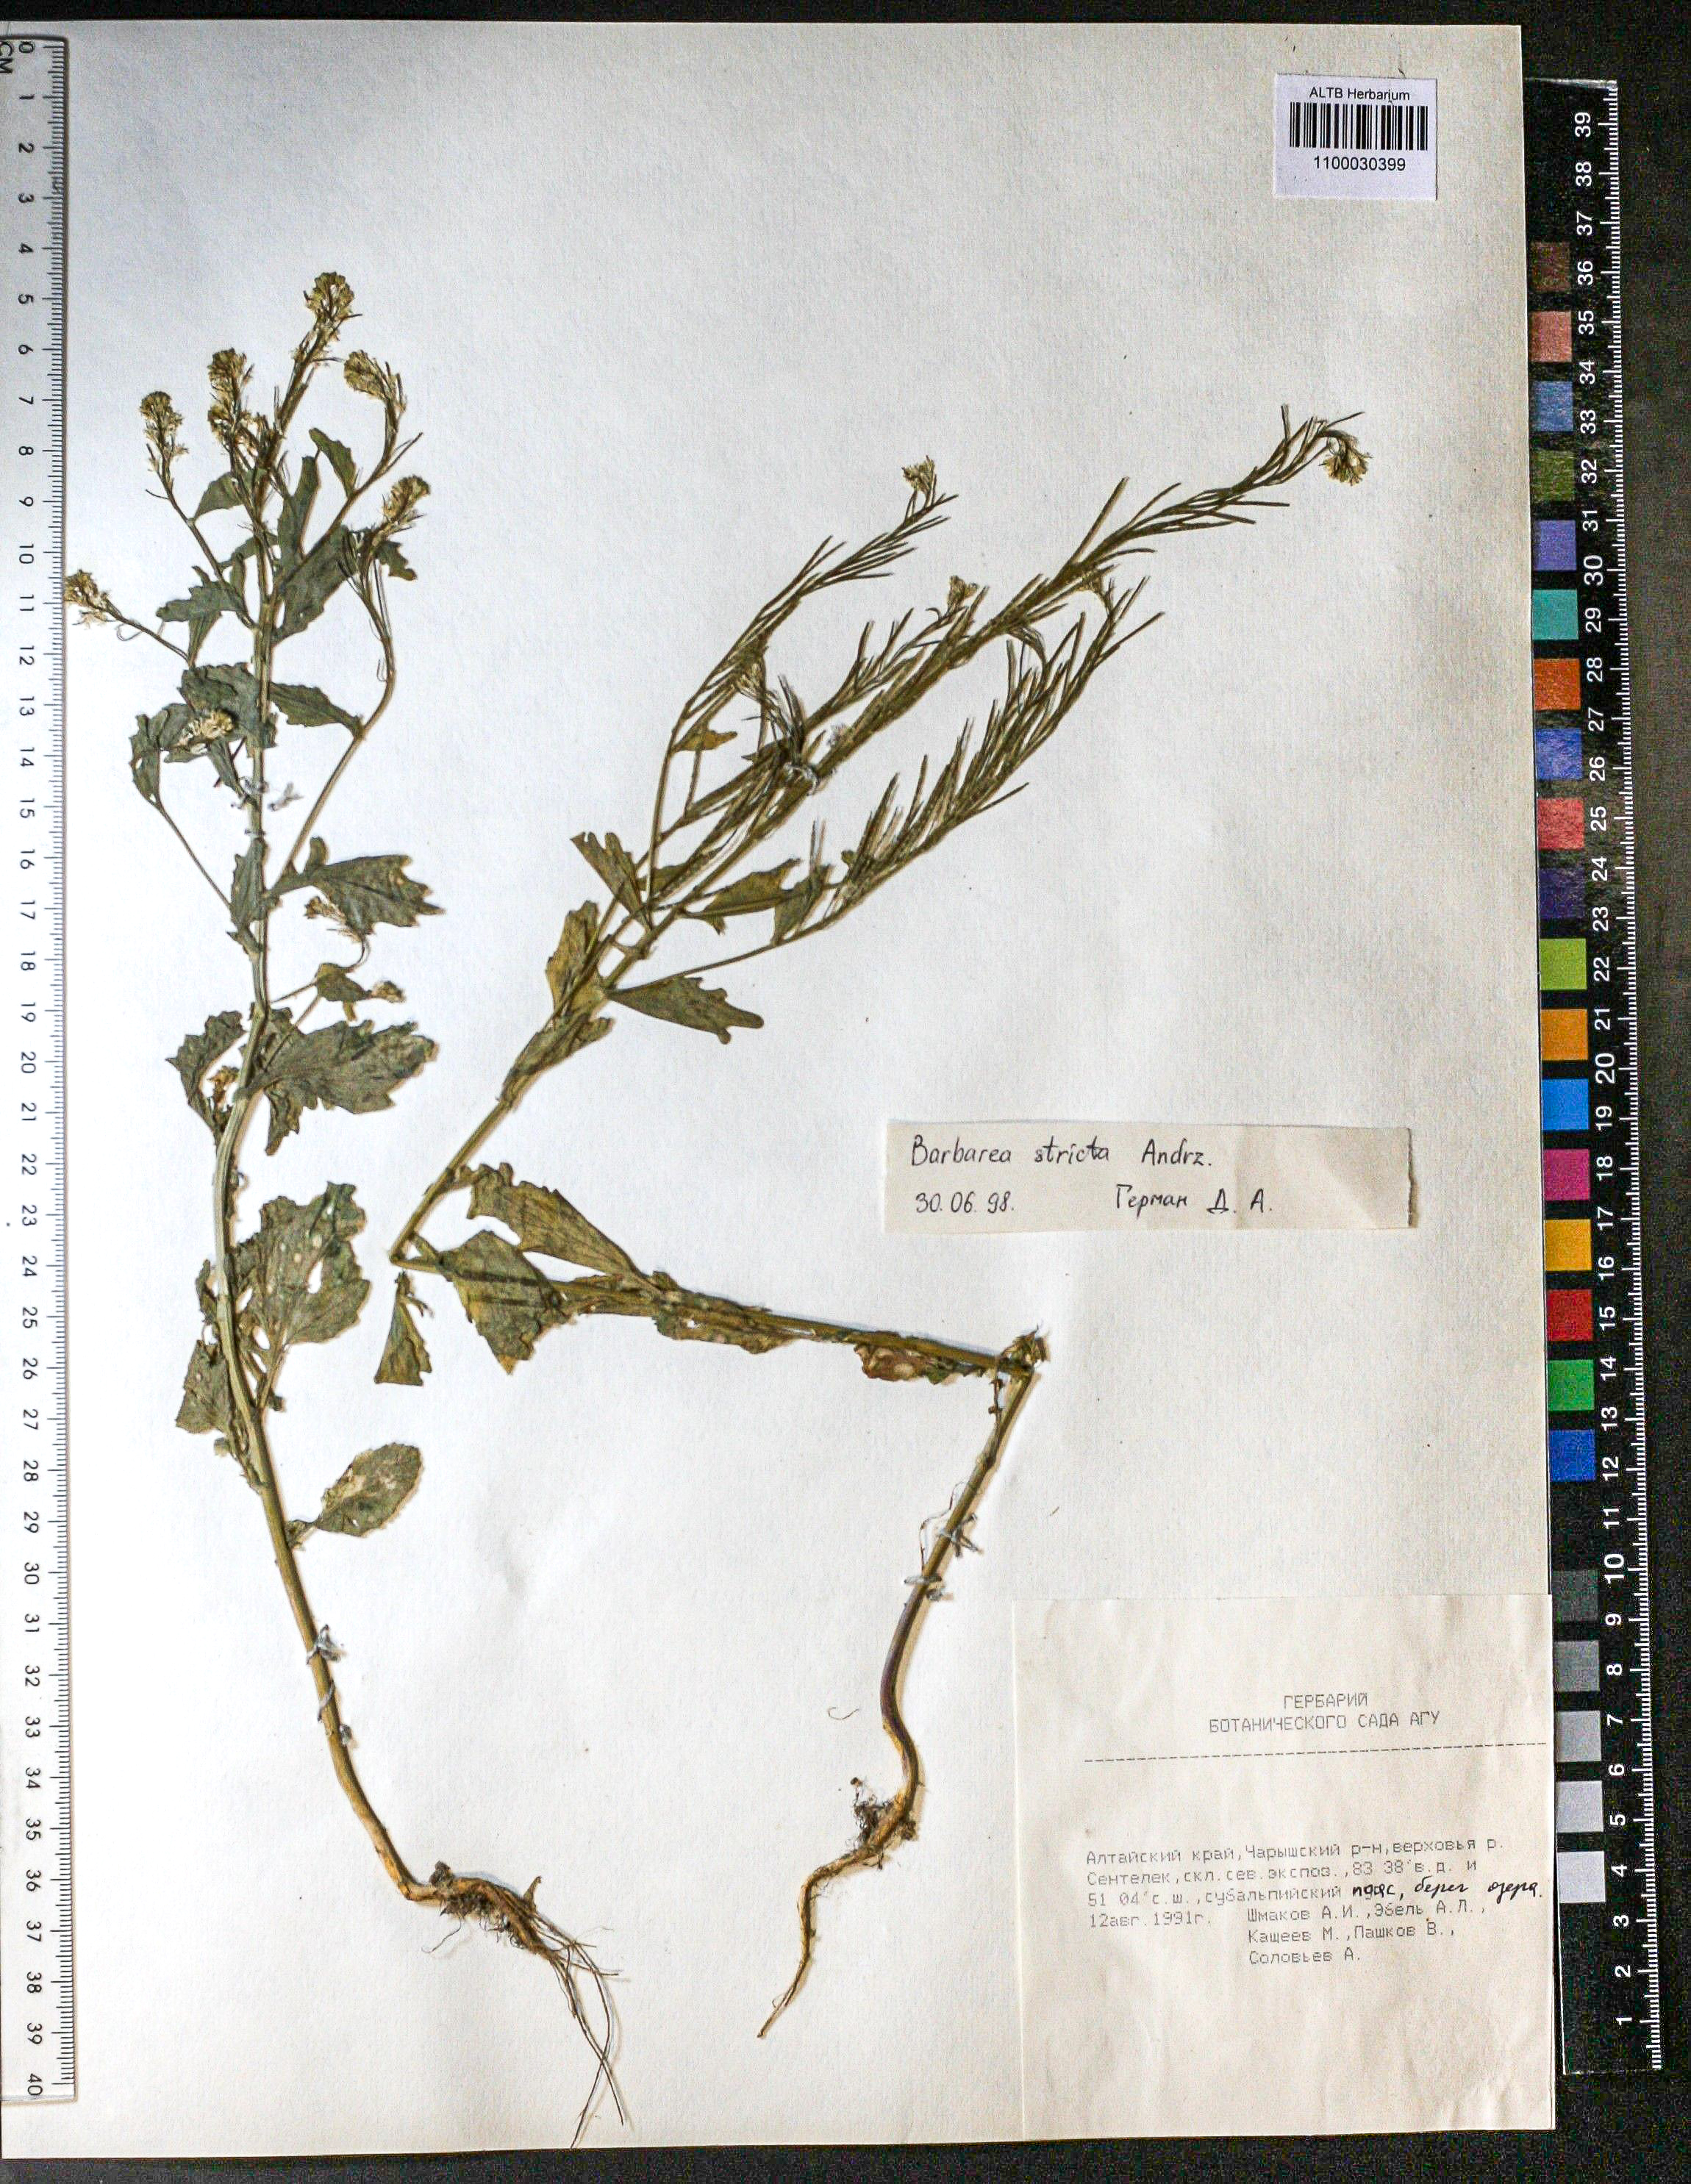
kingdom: Plantae
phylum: Tracheophyta
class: Magnoliopsida
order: Brassicales
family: Brassicaceae
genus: Barbarea
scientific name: Barbarea vulgaris
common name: Cressy-greens
